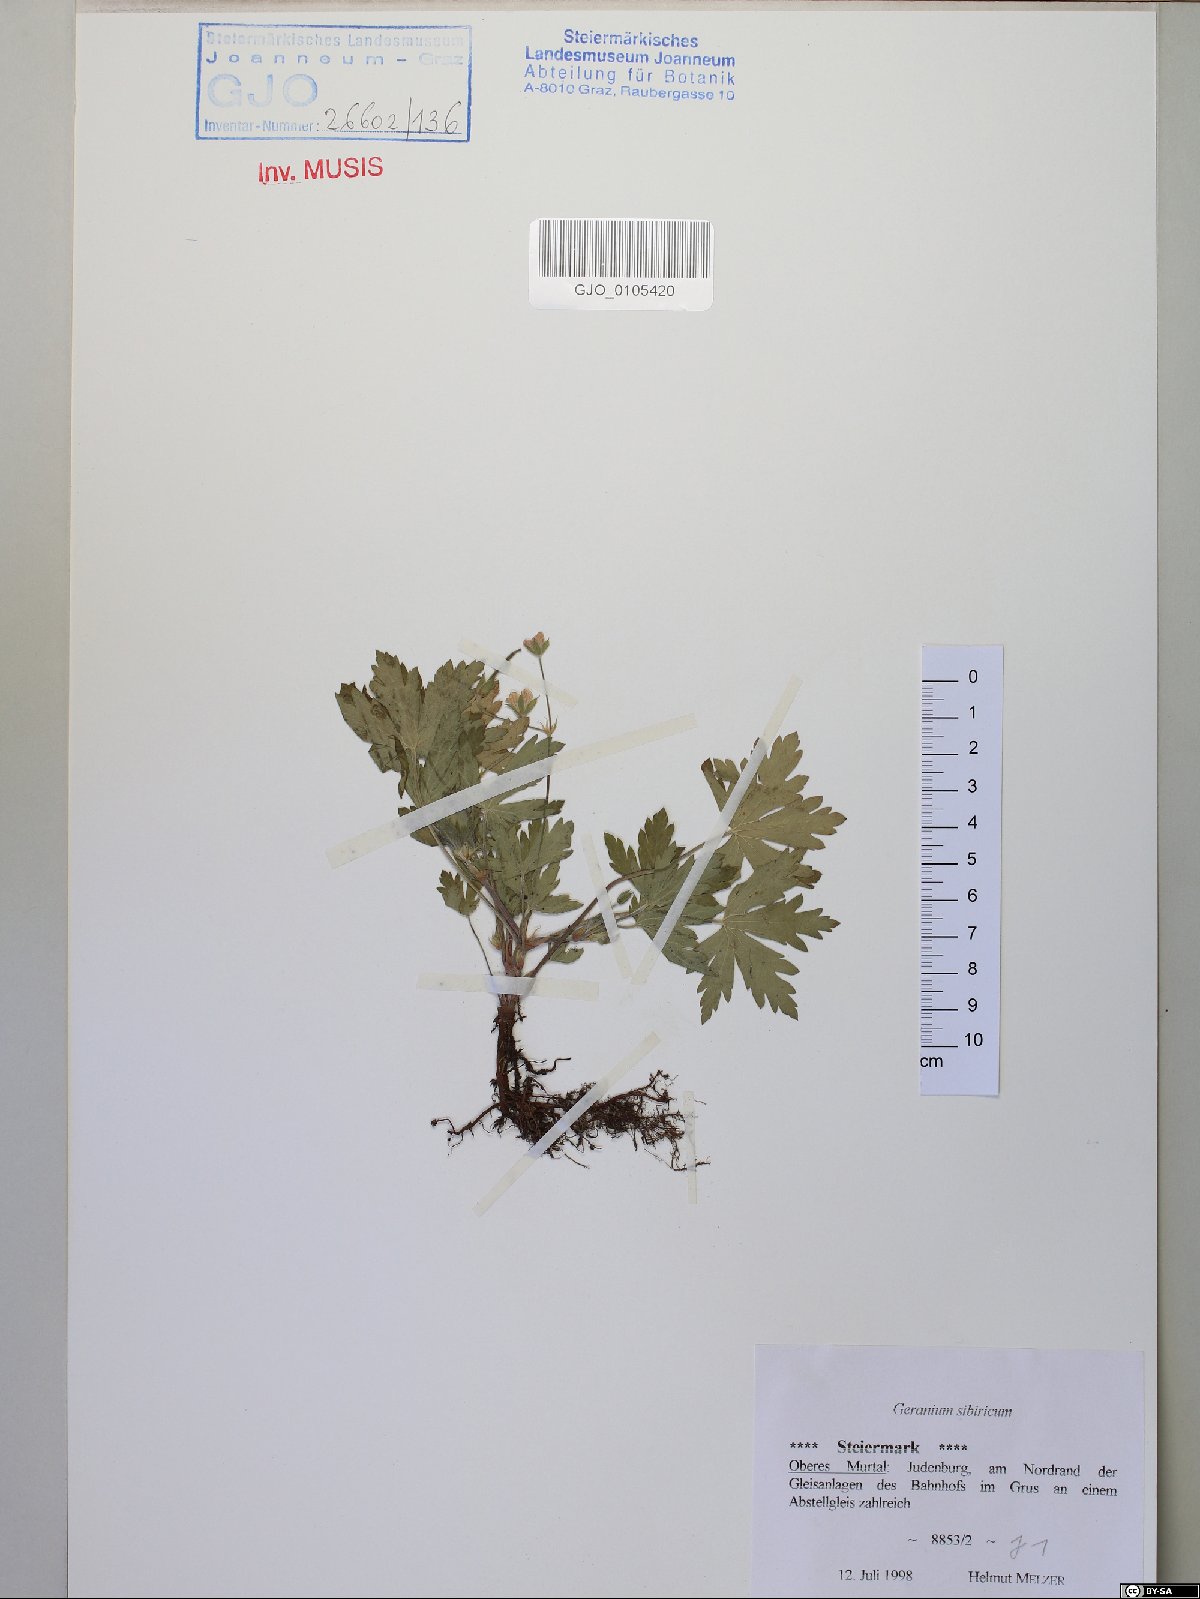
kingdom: Plantae
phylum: Tracheophyta
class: Magnoliopsida
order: Geraniales
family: Geraniaceae
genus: Geranium
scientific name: Geranium sibiricum
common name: Siberian crane's-bill
